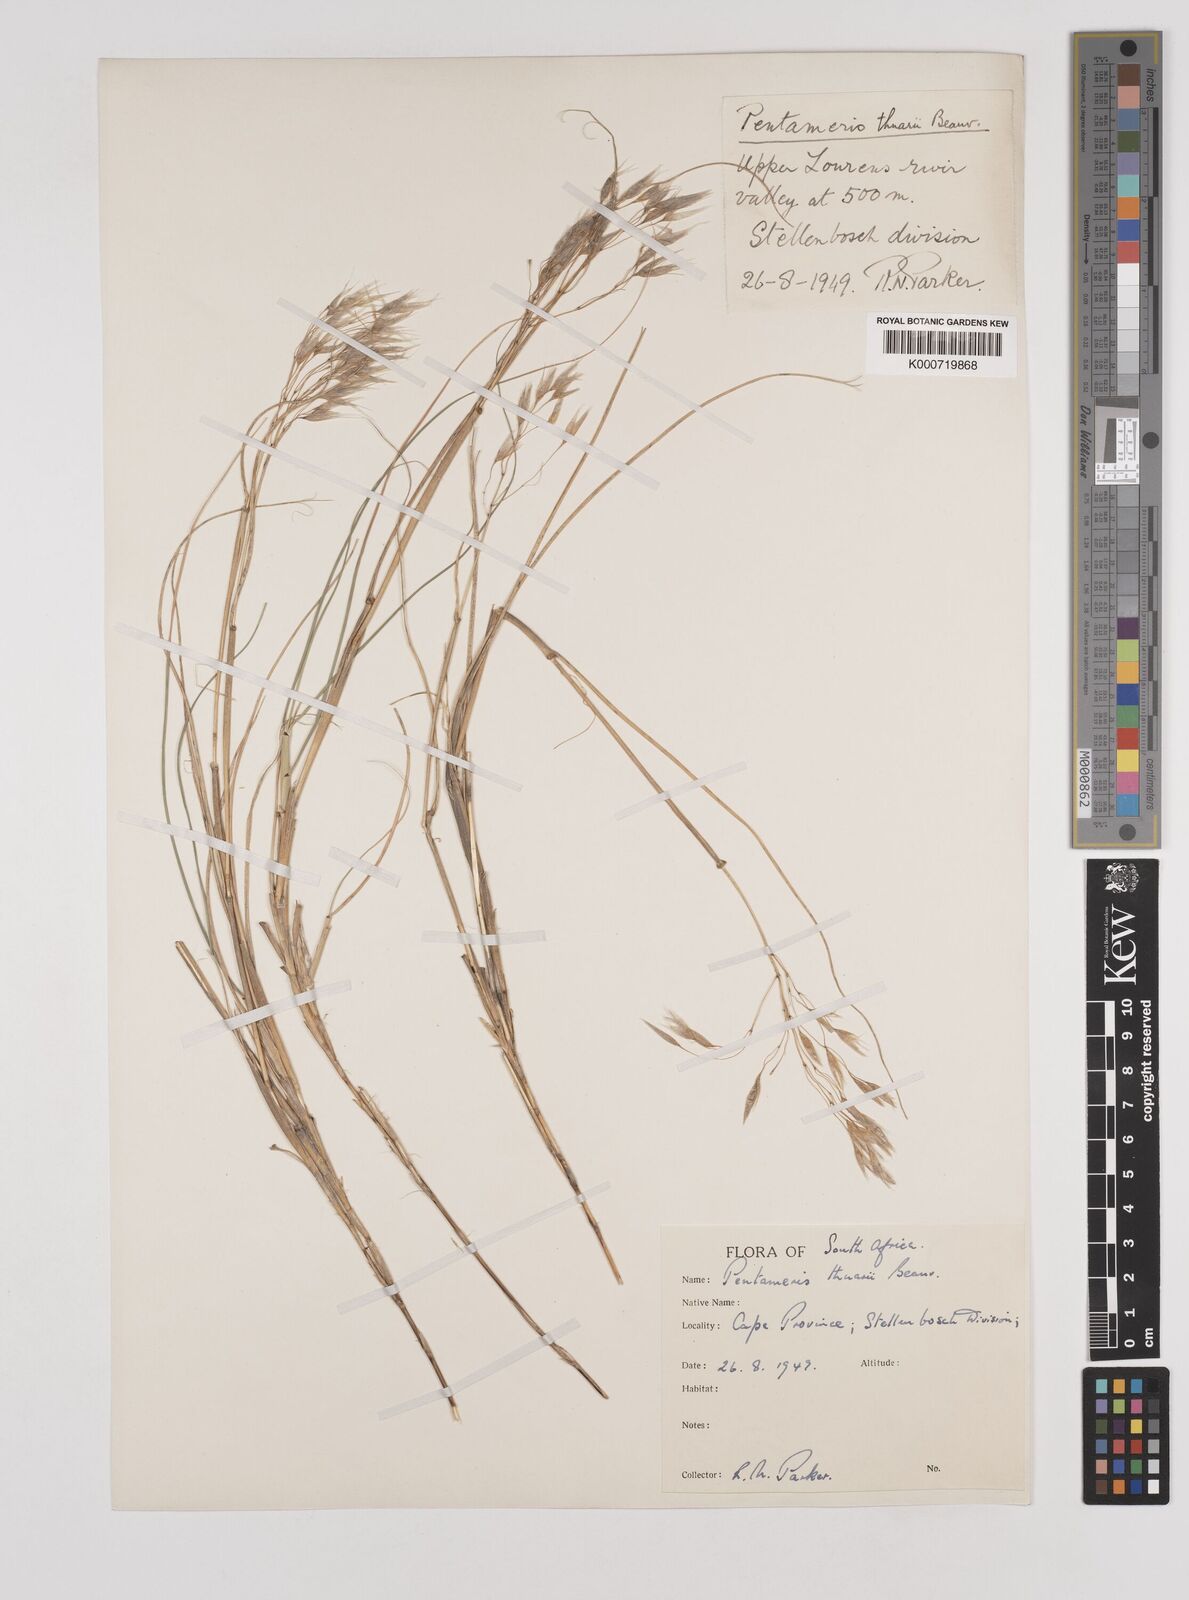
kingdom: Plantae
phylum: Tracheophyta
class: Liliopsida
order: Poales
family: Poaceae
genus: Pentameris
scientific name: Pentameris thuarii
